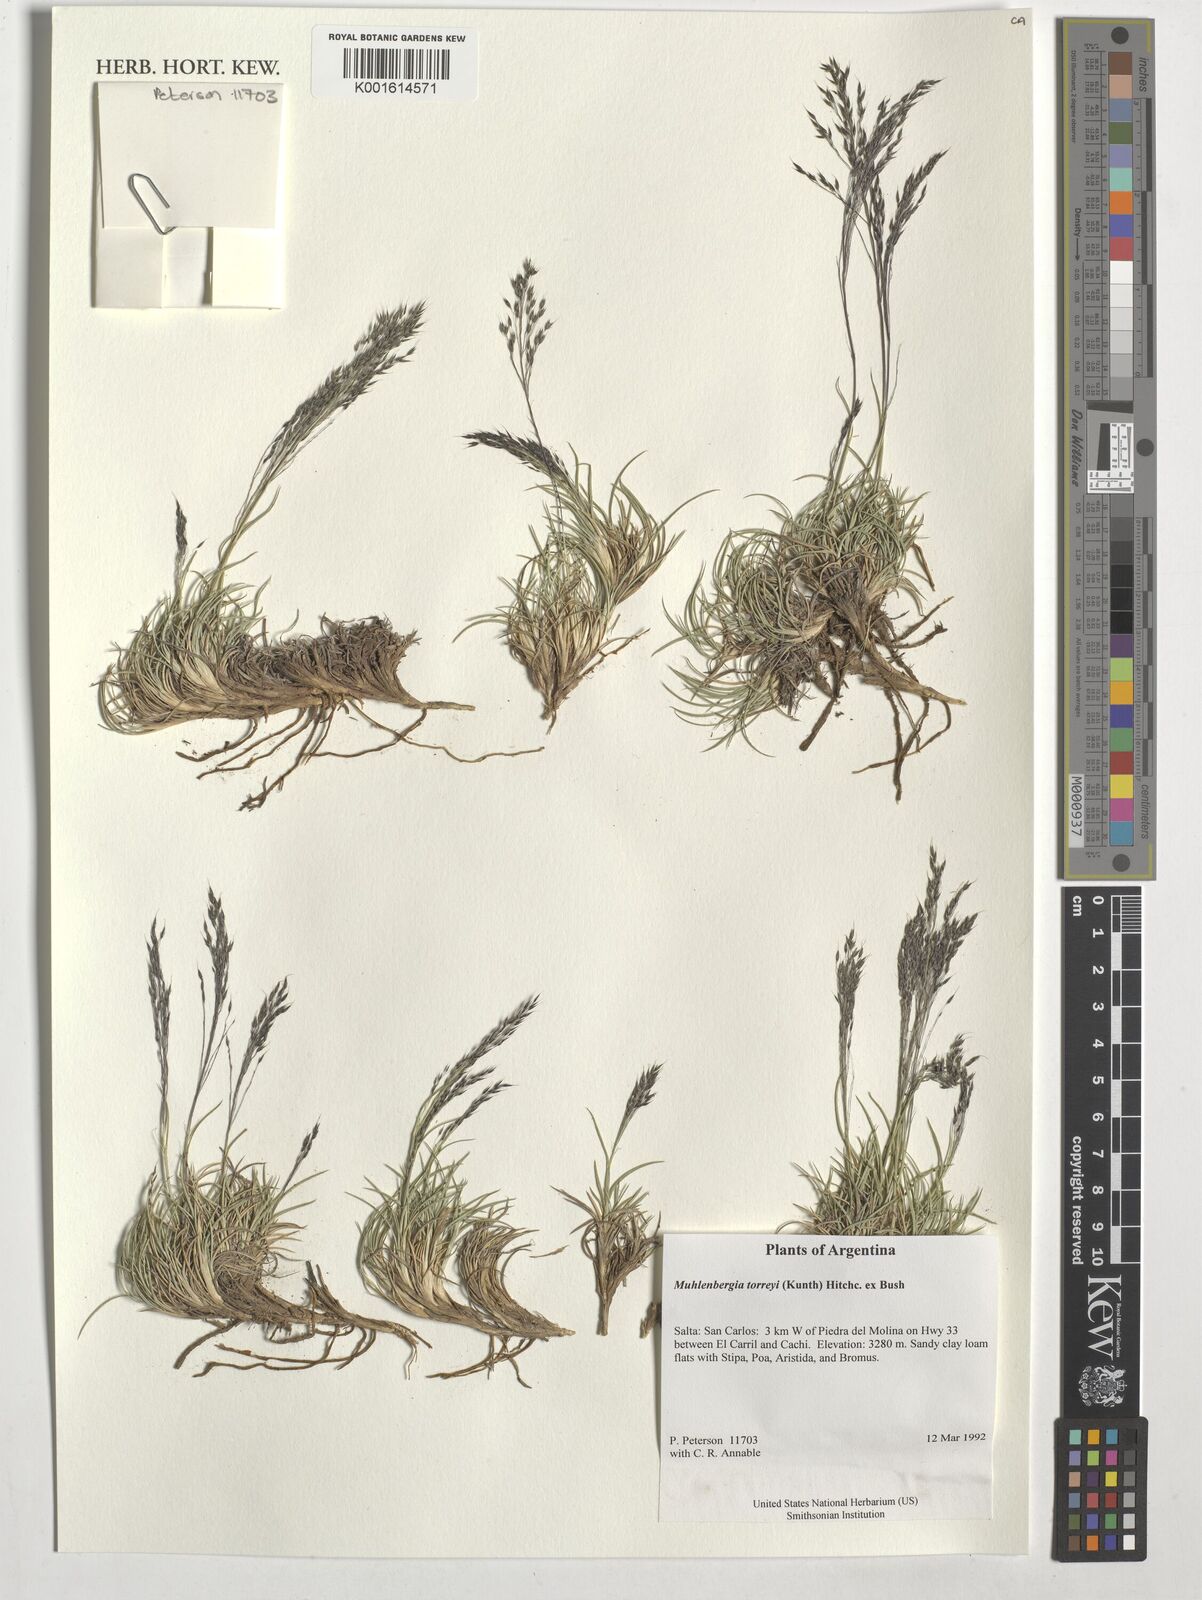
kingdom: Plantae
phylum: Tracheophyta
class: Liliopsida
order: Poales
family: Poaceae
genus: Muhlenbergia
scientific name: Muhlenbergia torreyi
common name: Ring grass
